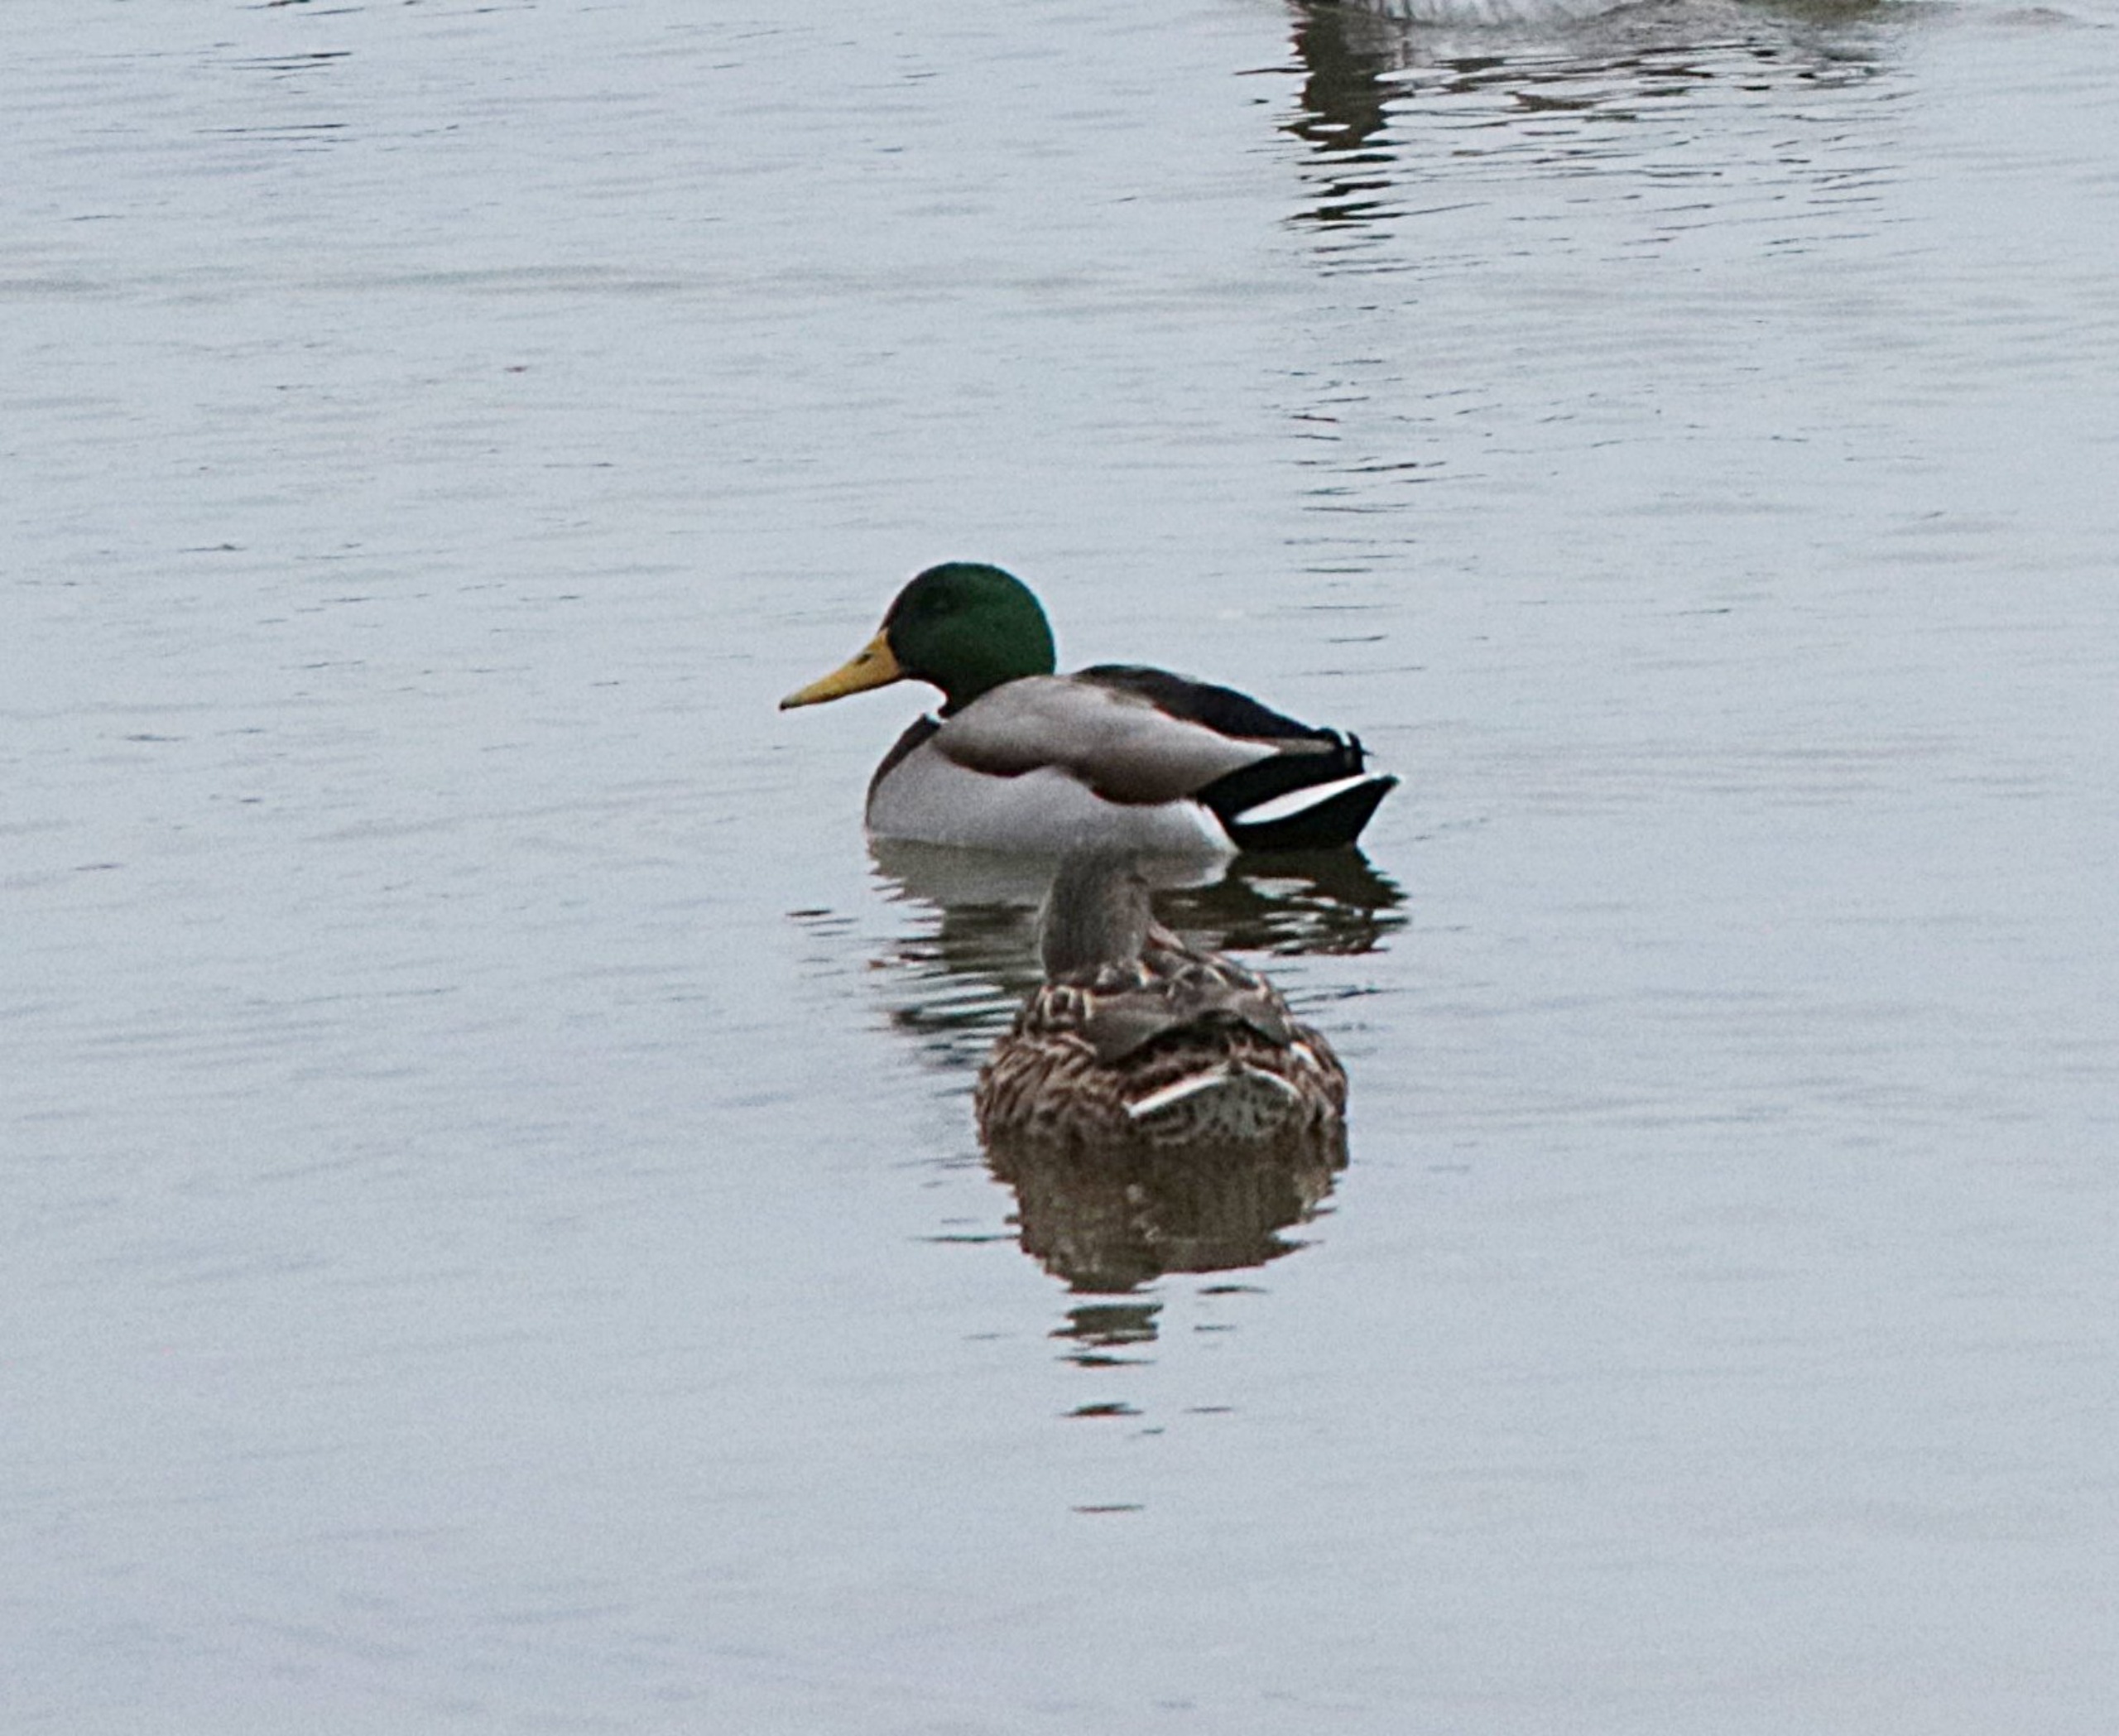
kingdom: Animalia
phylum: Chordata
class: Aves
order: Anseriformes
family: Anatidae
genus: Anas
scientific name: Anas platyrhynchos
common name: Gråand
